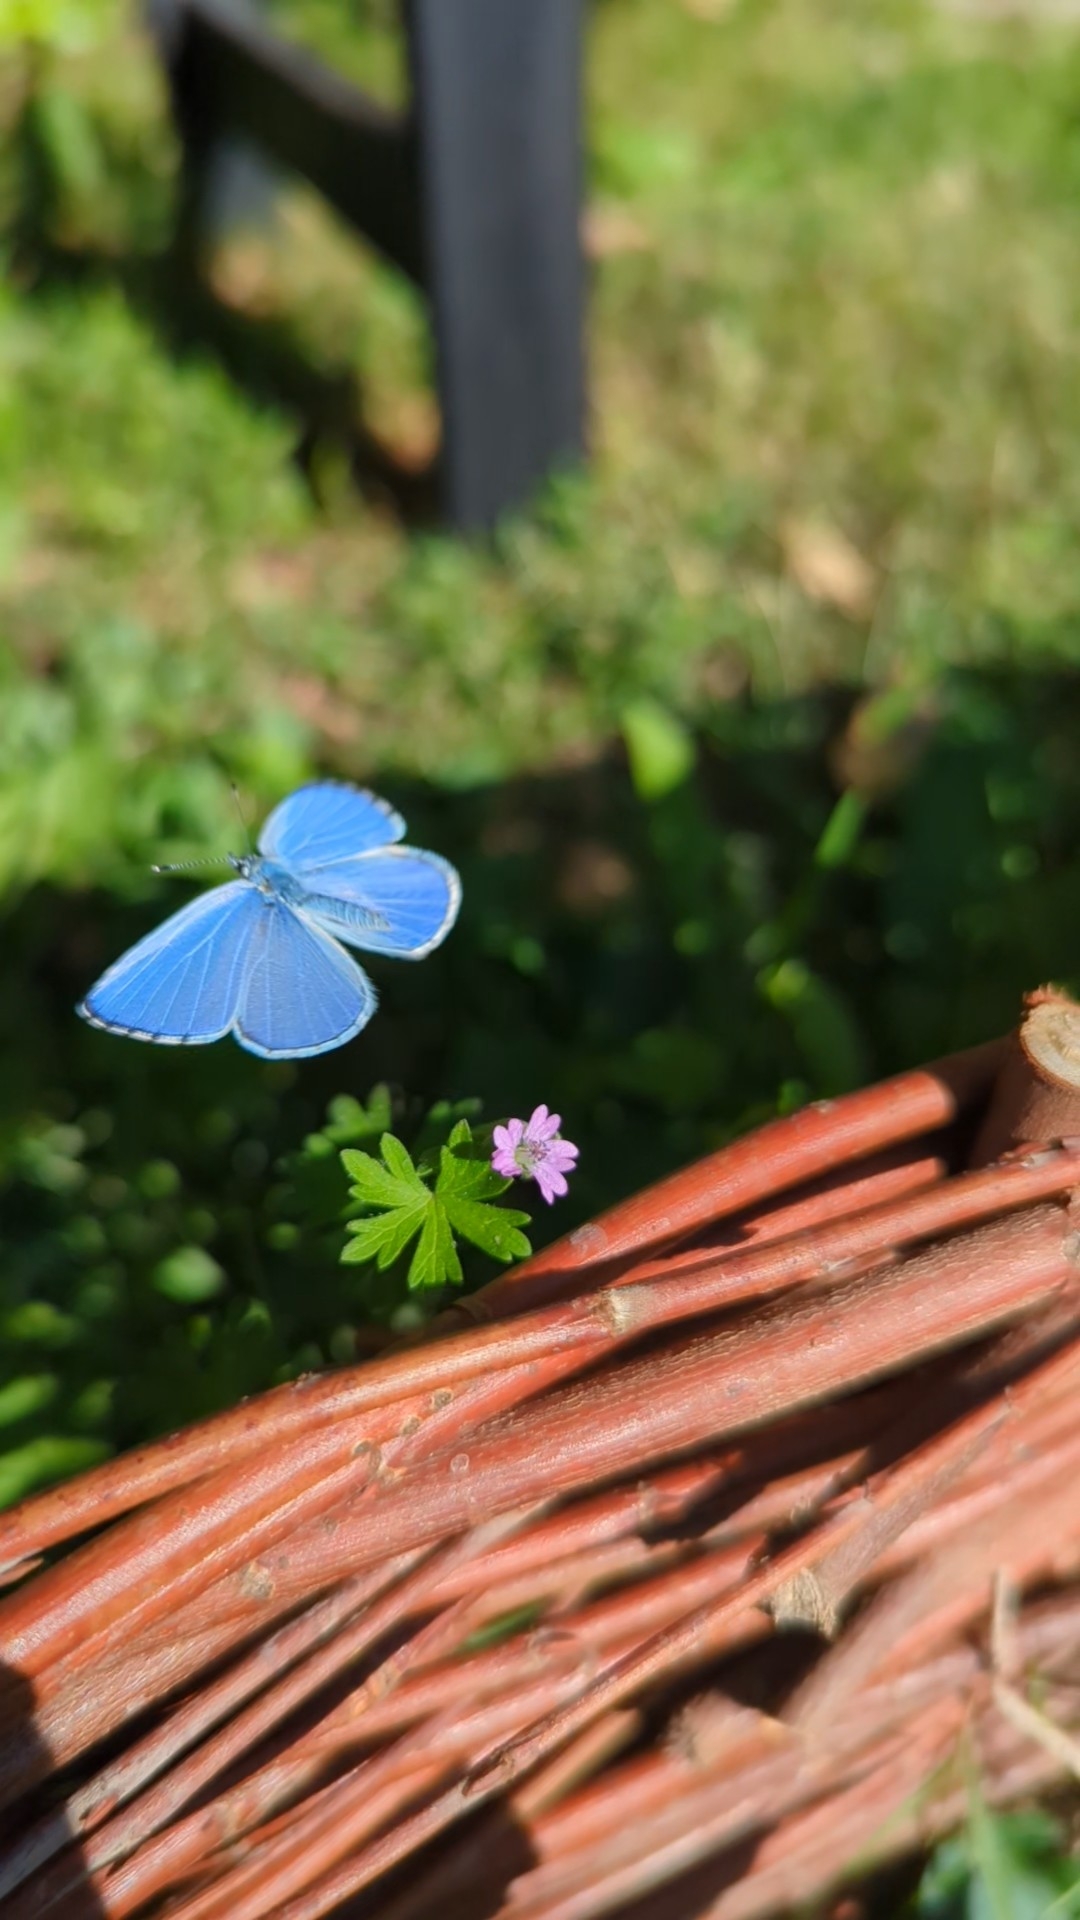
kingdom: Animalia
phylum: Arthropoda
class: Insecta
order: Lepidoptera
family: Lycaenidae
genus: Celastrina
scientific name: Celastrina argiolus
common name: Skovblåfugl
